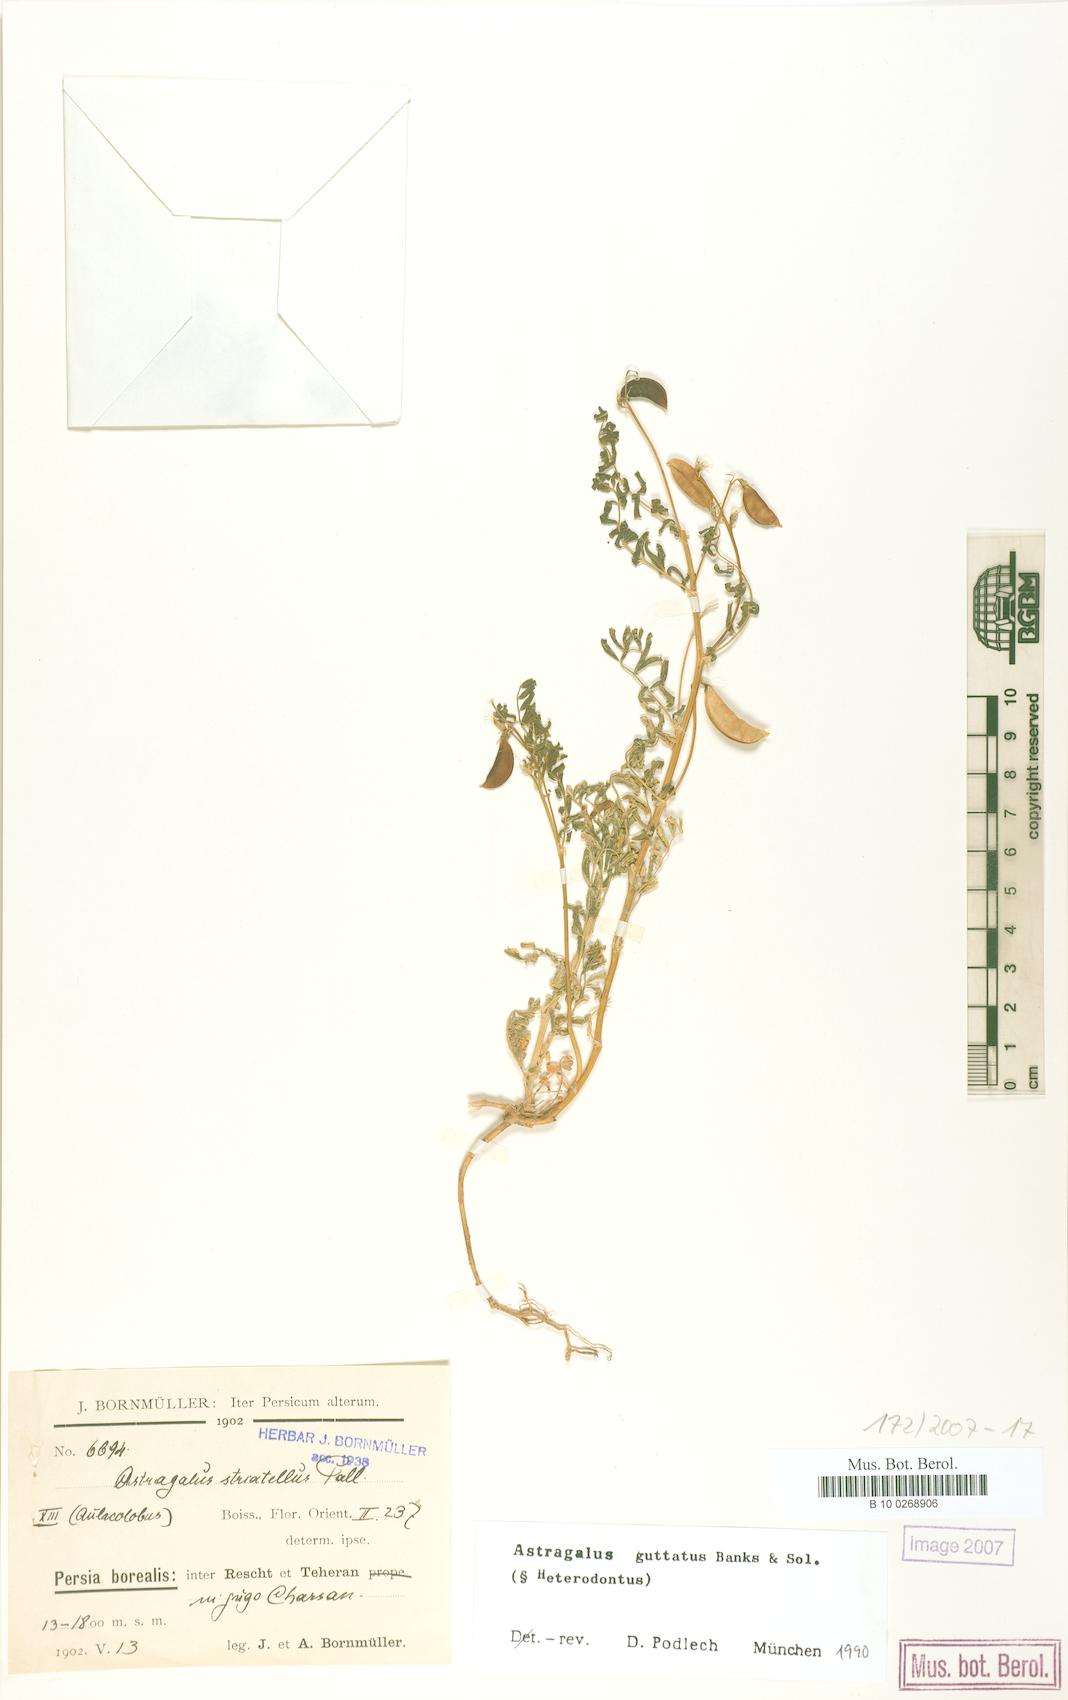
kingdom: Plantae
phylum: Tracheophyta
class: Magnoliopsida
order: Fabales
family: Fabaceae
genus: Astragalus
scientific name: Astragalus guttatus
